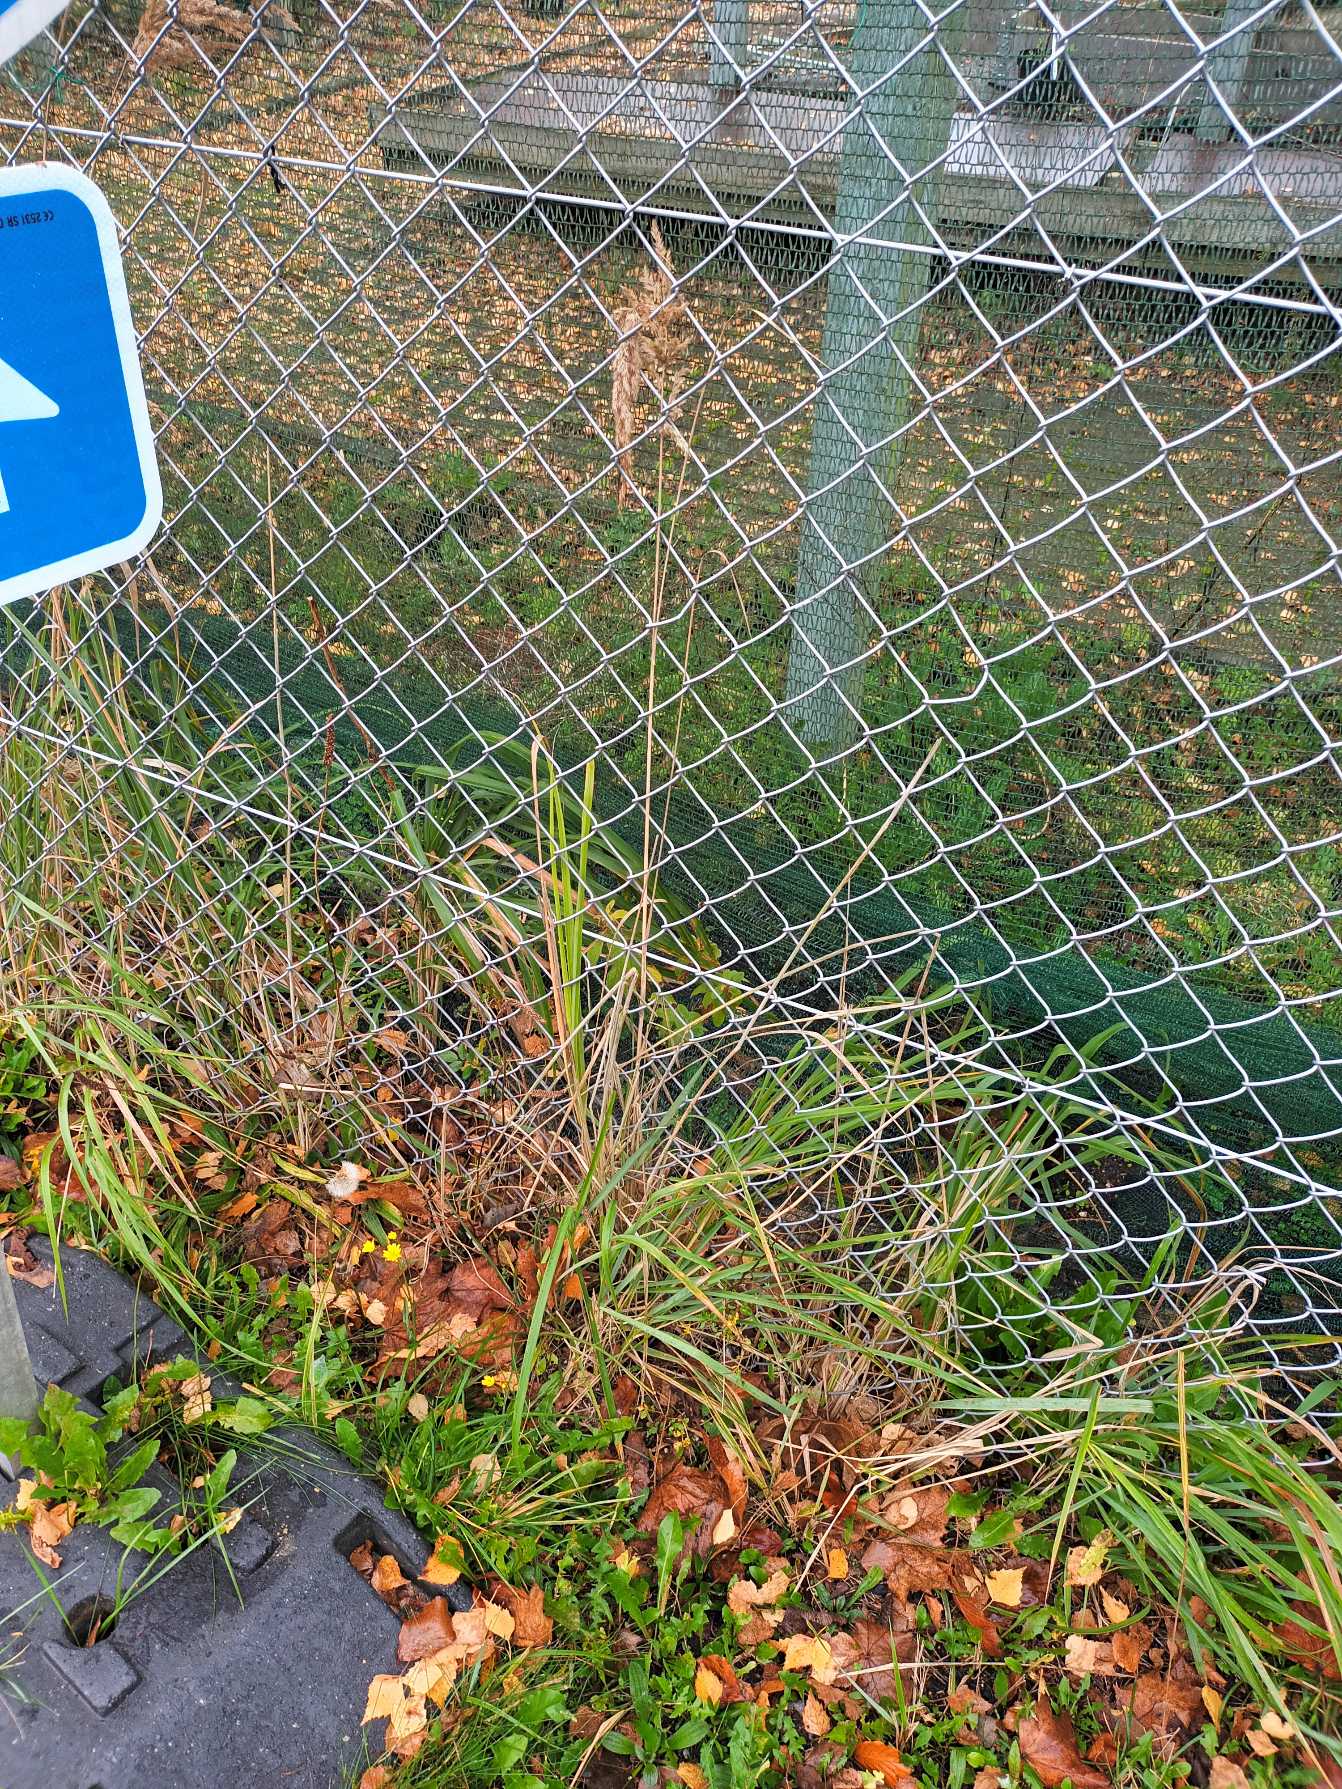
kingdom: Plantae
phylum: Tracheophyta
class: Liliopsida
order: Poales
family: Poaceae
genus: Calamagrostis
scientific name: Calamagrostis epigejos
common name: Bjerg-rørhvene
